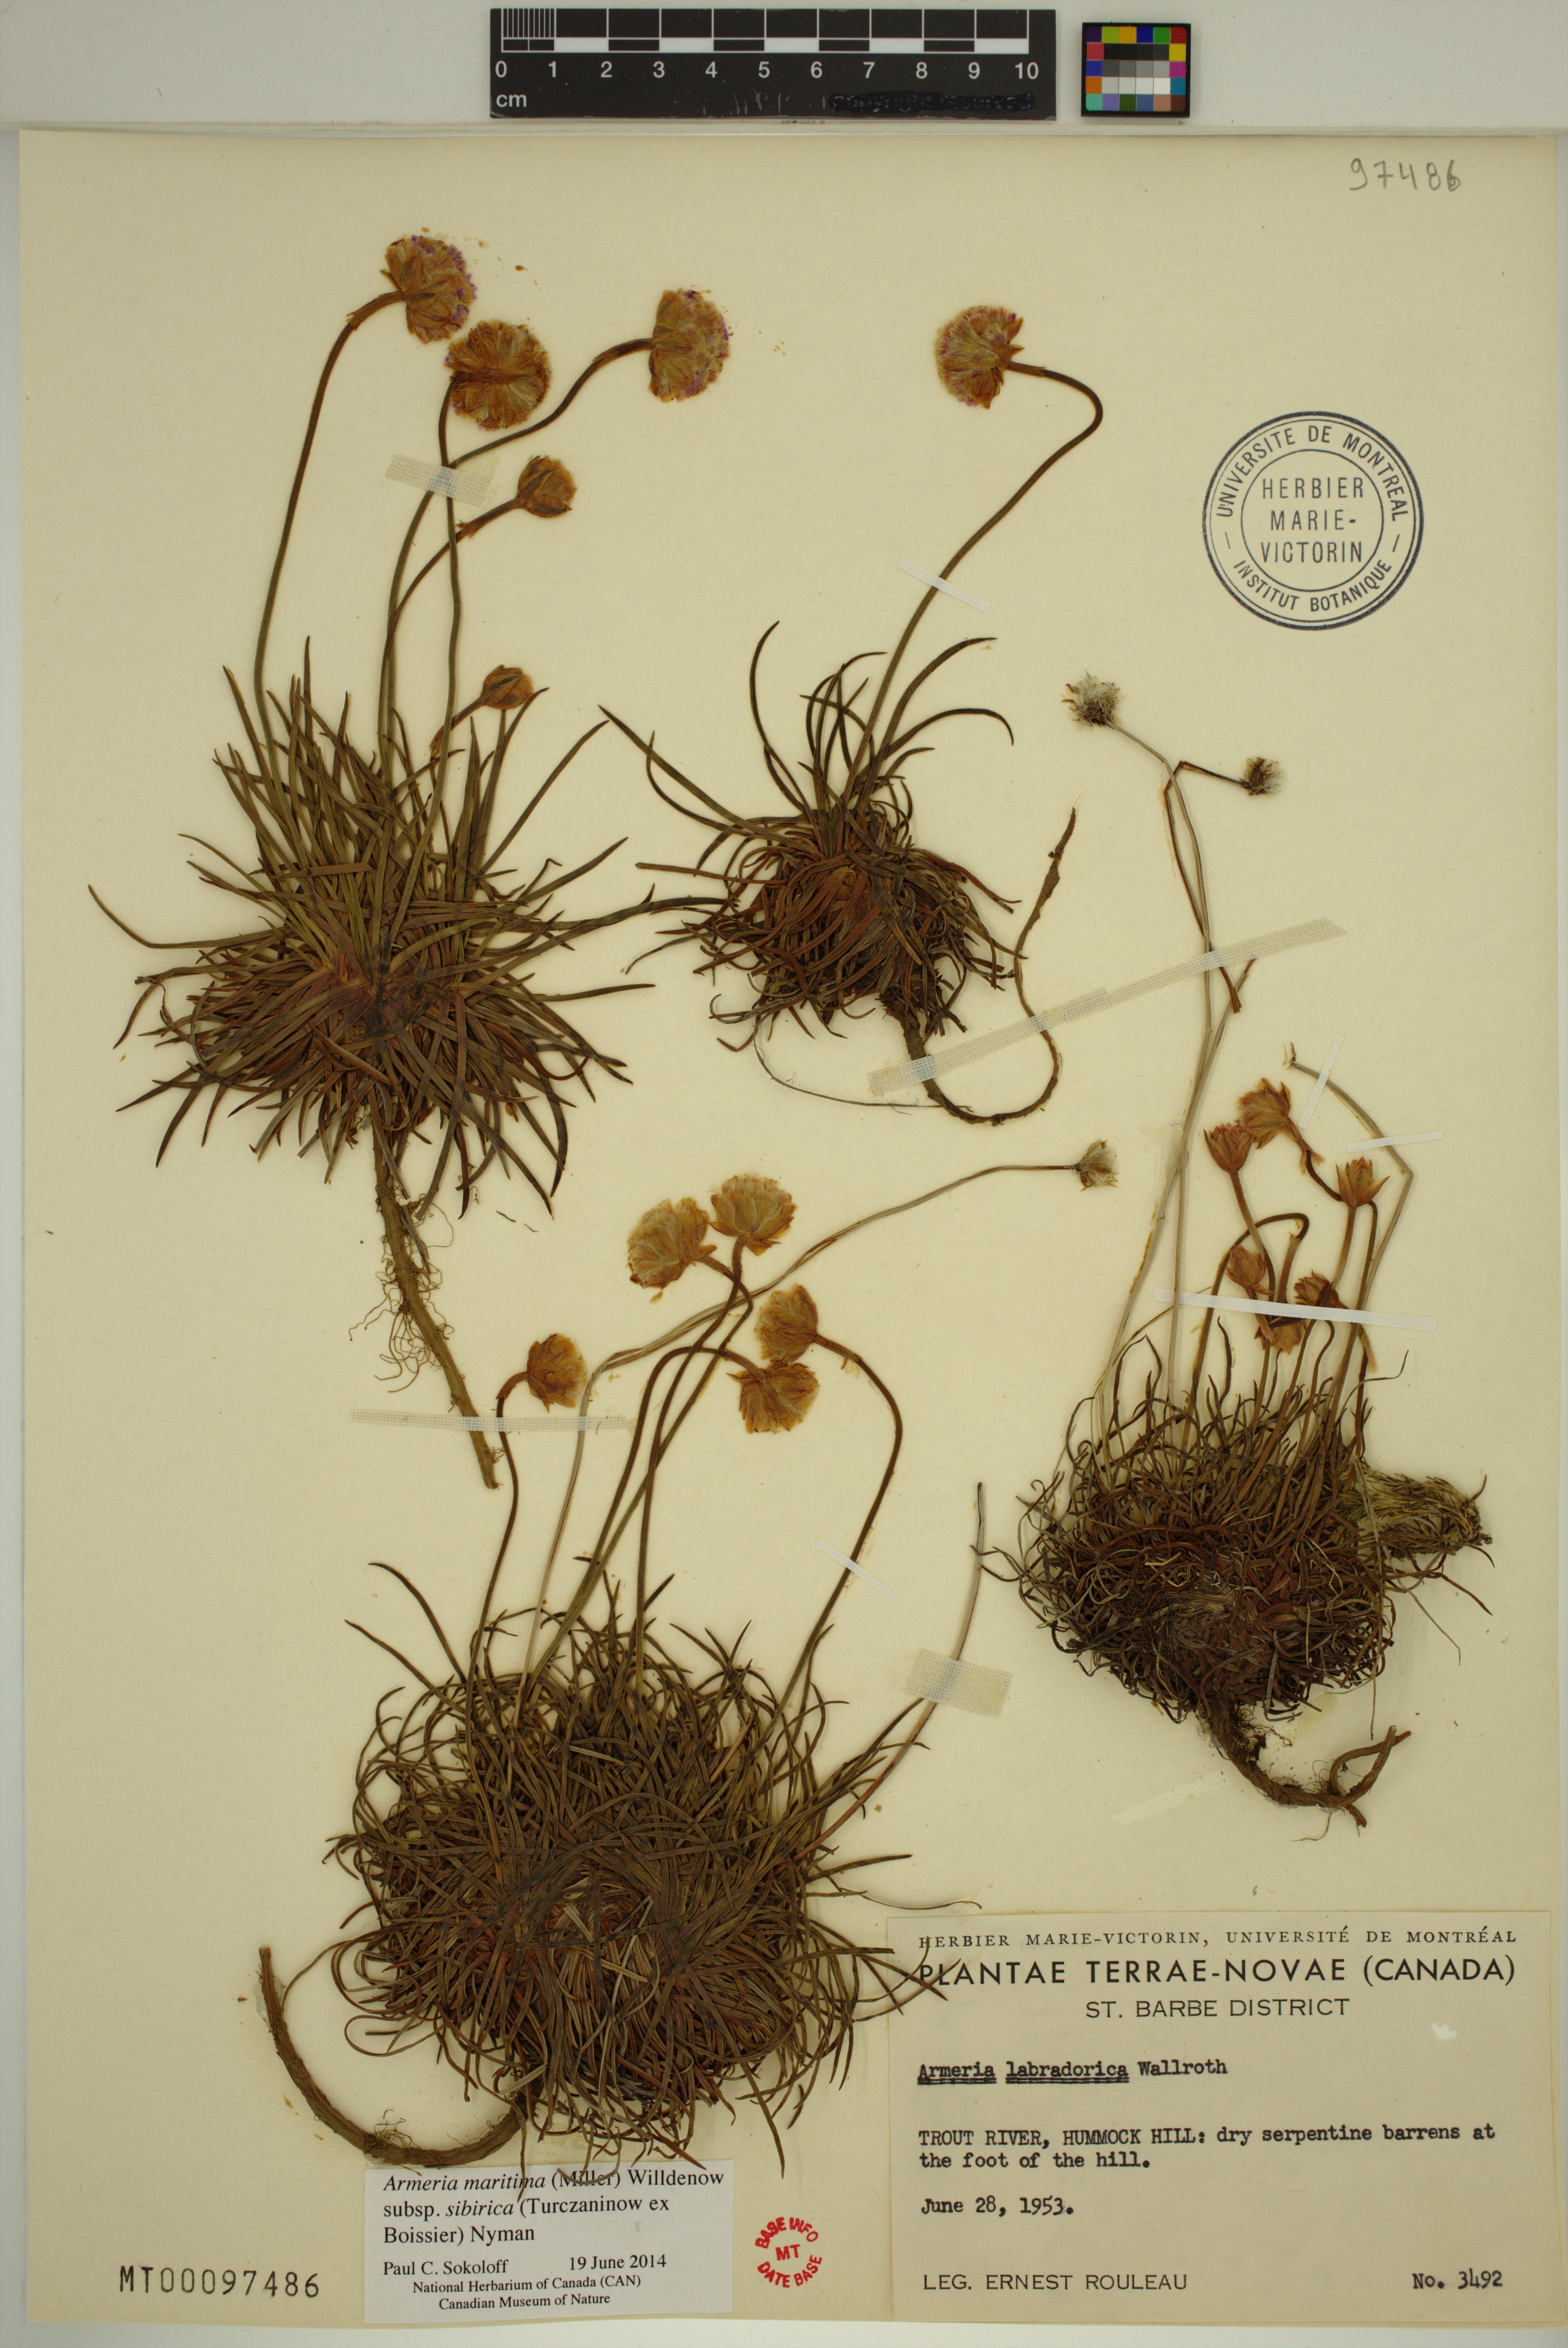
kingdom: Plantae
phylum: Tracheophyta
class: Magnoliopsida
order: Caryophyllales
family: Plumbaginaceae
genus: Armeria
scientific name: Armeria maritima
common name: Thrift
